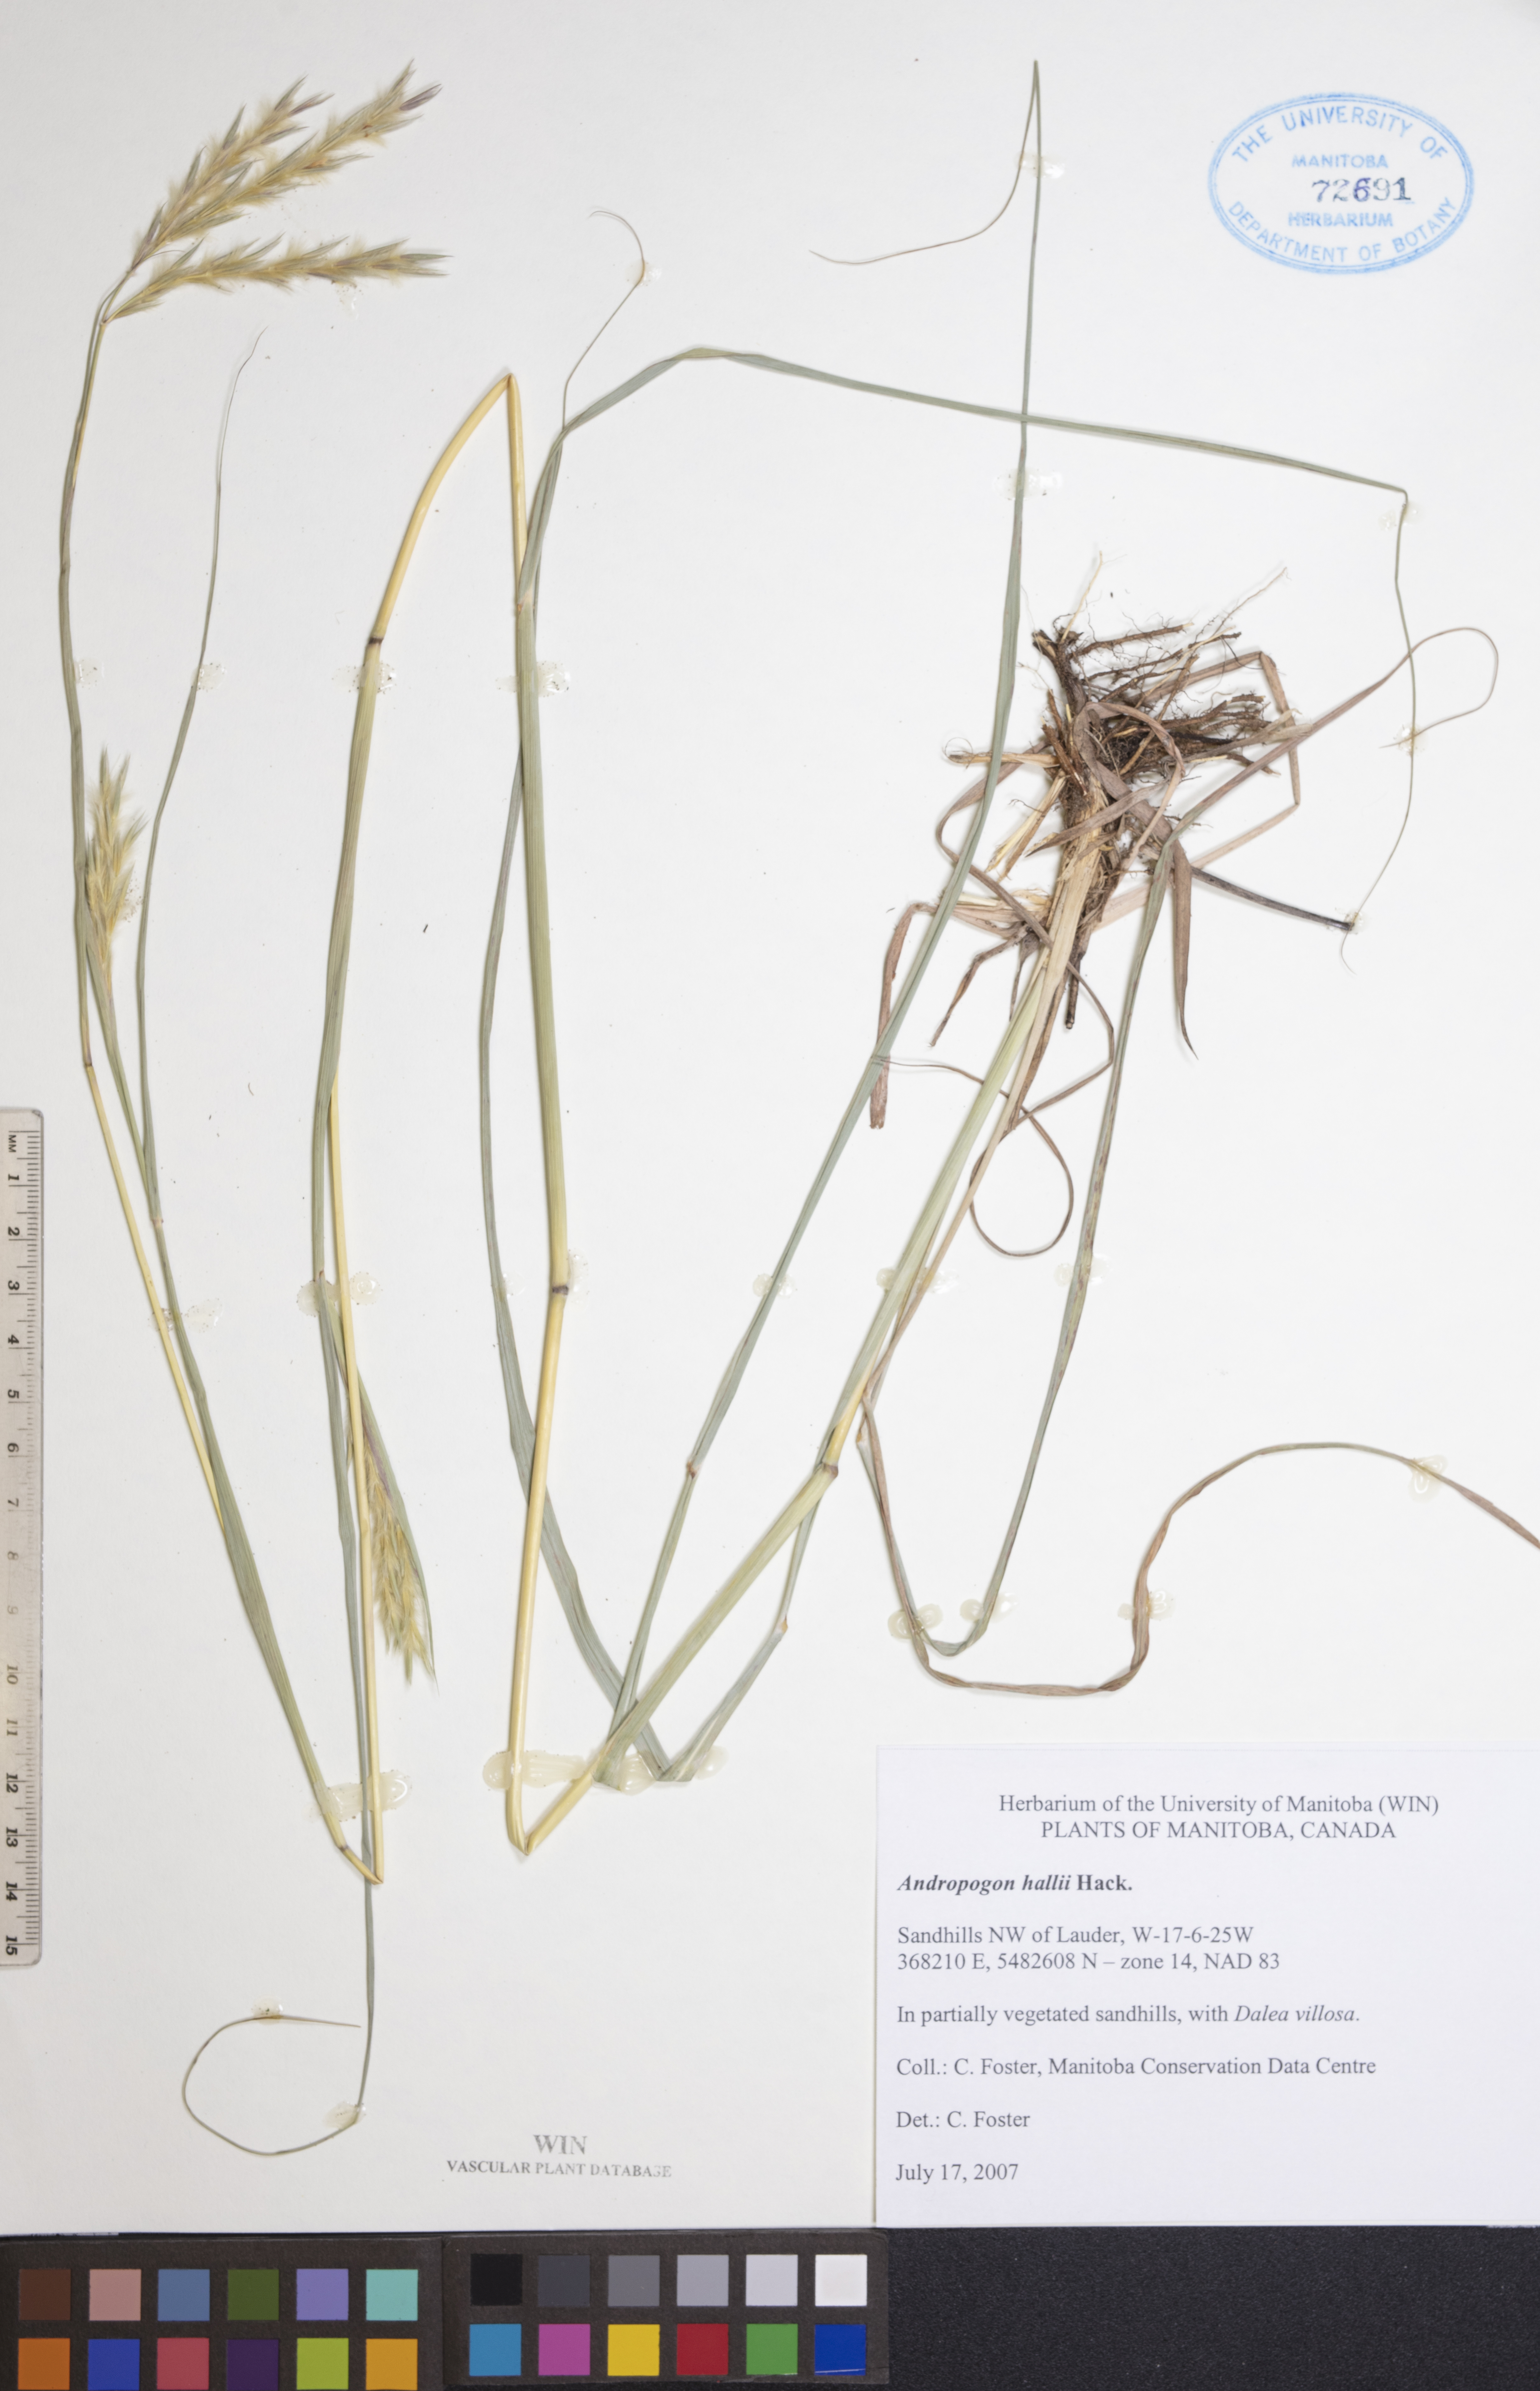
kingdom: Plantae
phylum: Tracheophyta
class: Liliopsida
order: Poales
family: Poaceae
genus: Andropogon
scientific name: Andropogon hallii
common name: Sand bluestem
